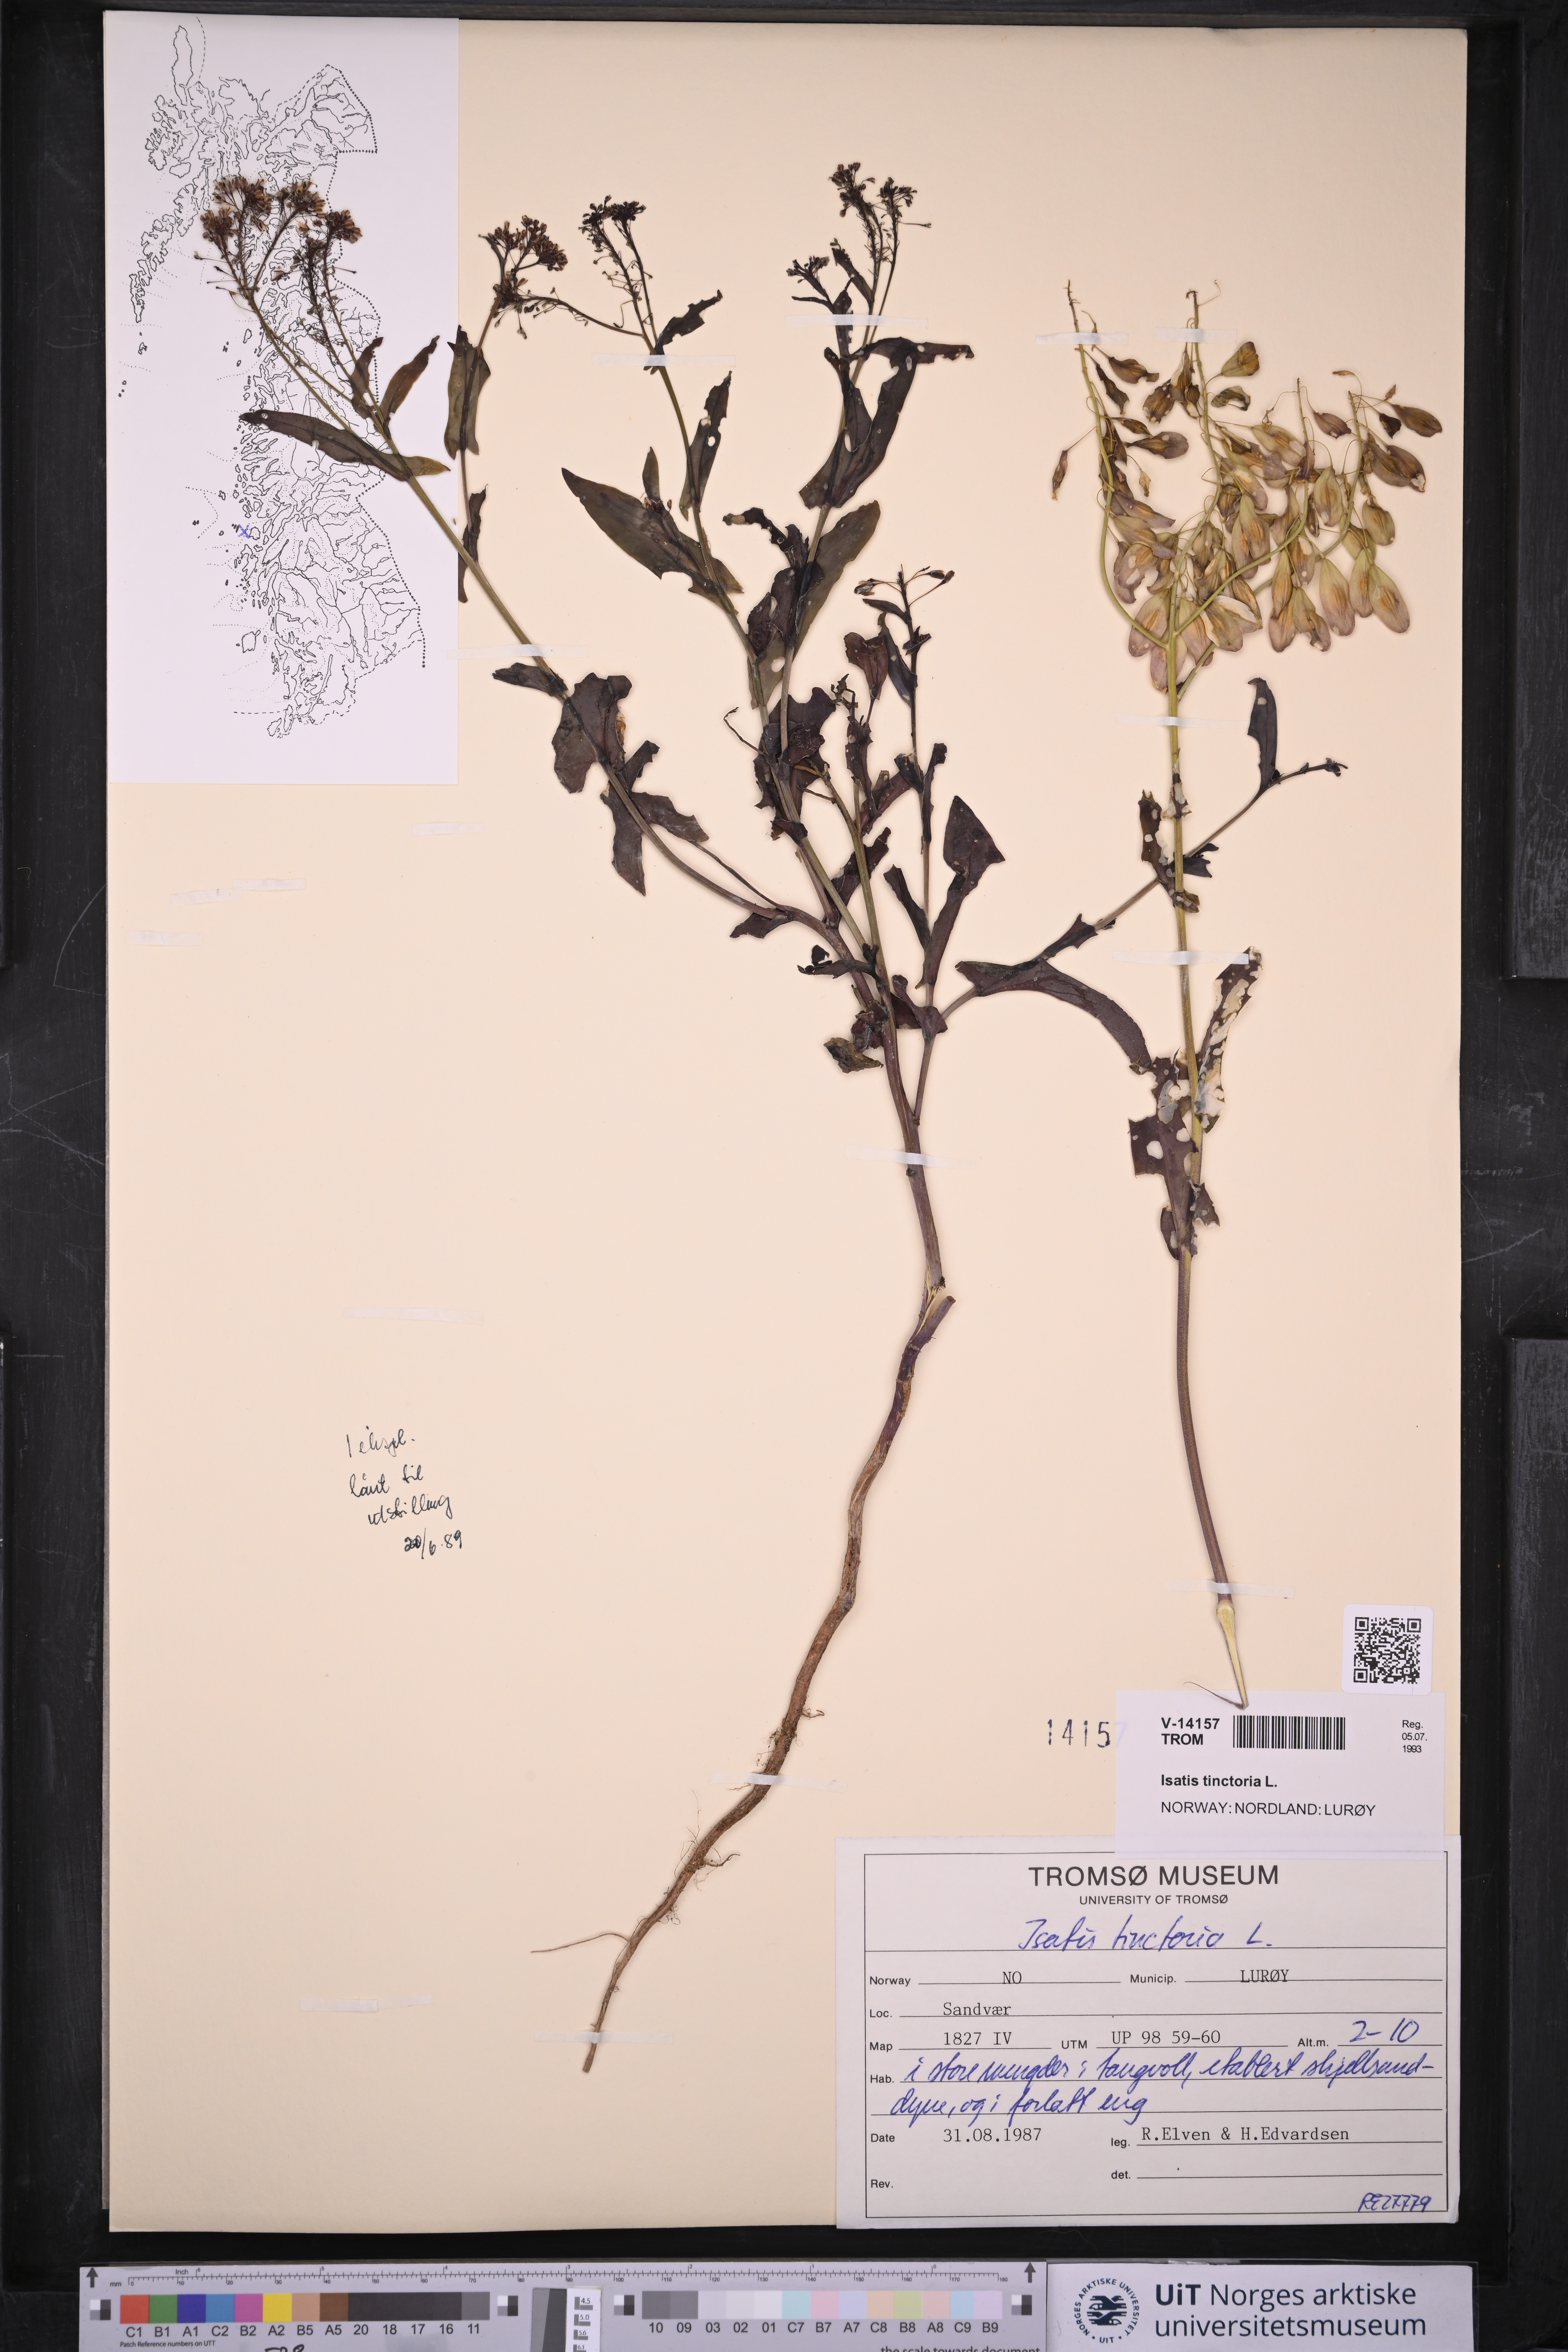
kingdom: Plantae
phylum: Tracheophyta
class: Magnoliopsida
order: Brassicales
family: Brassicaceae
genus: Isatis
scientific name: Isatis tinctoria
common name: Woad
